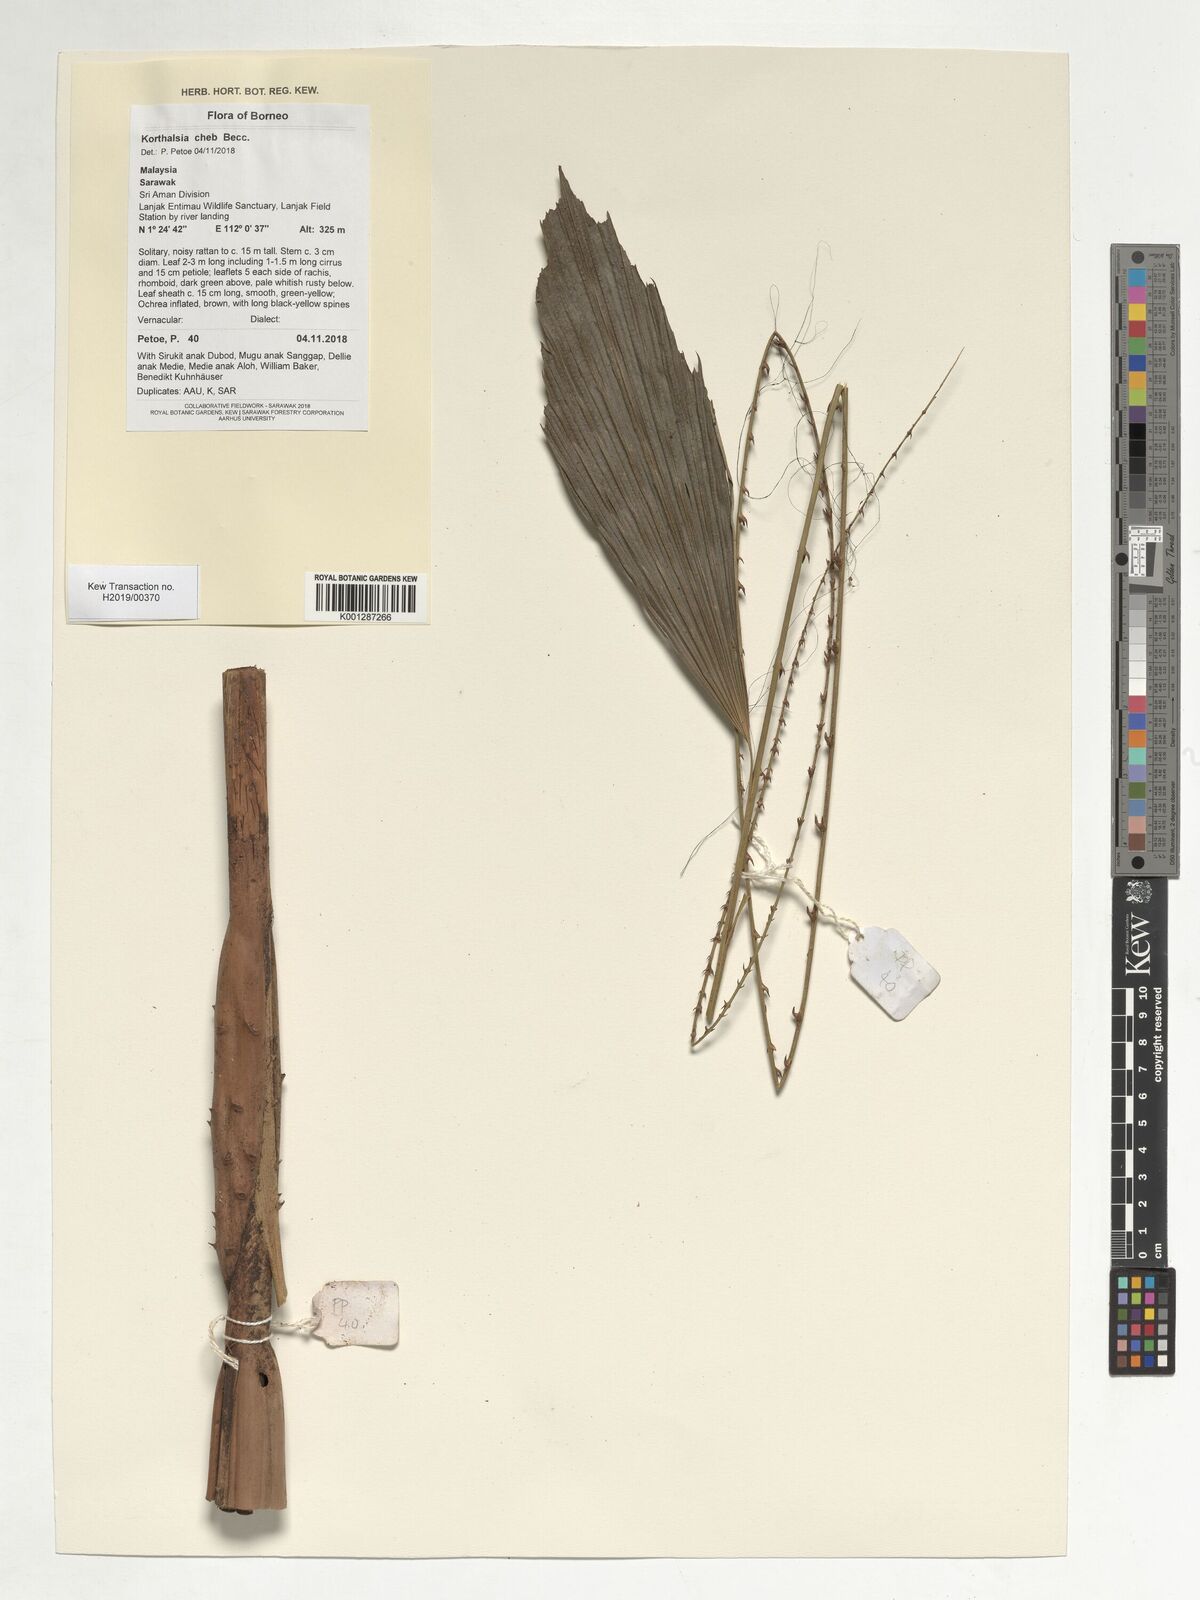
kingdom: Plantae
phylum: Tracheophyta
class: Liliopsida
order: Arecales
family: Arecaceae
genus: Korthalsia
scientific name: Korthalsia cheb
